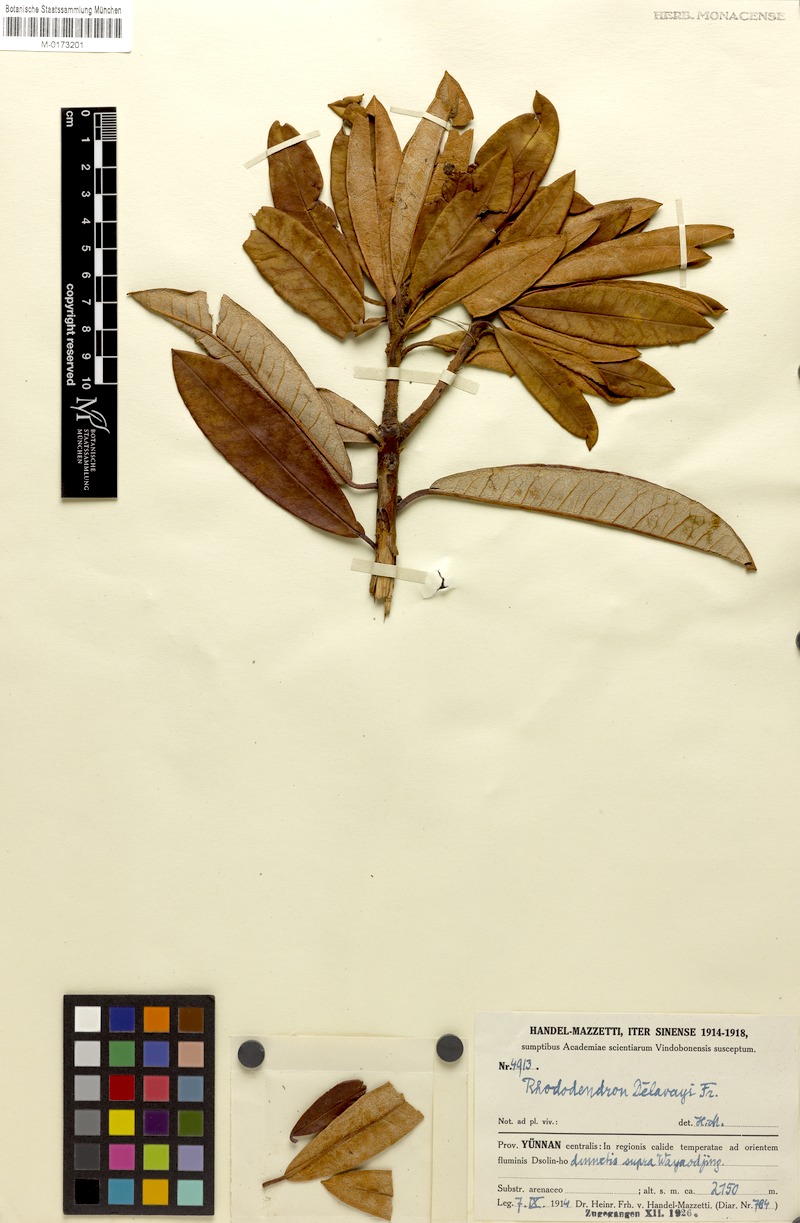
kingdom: Plantae
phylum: Tracheophyta
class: Magnoliopsida
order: Ericales
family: Ericaceae
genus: Rhododendron
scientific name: Rhododendron delavayi
